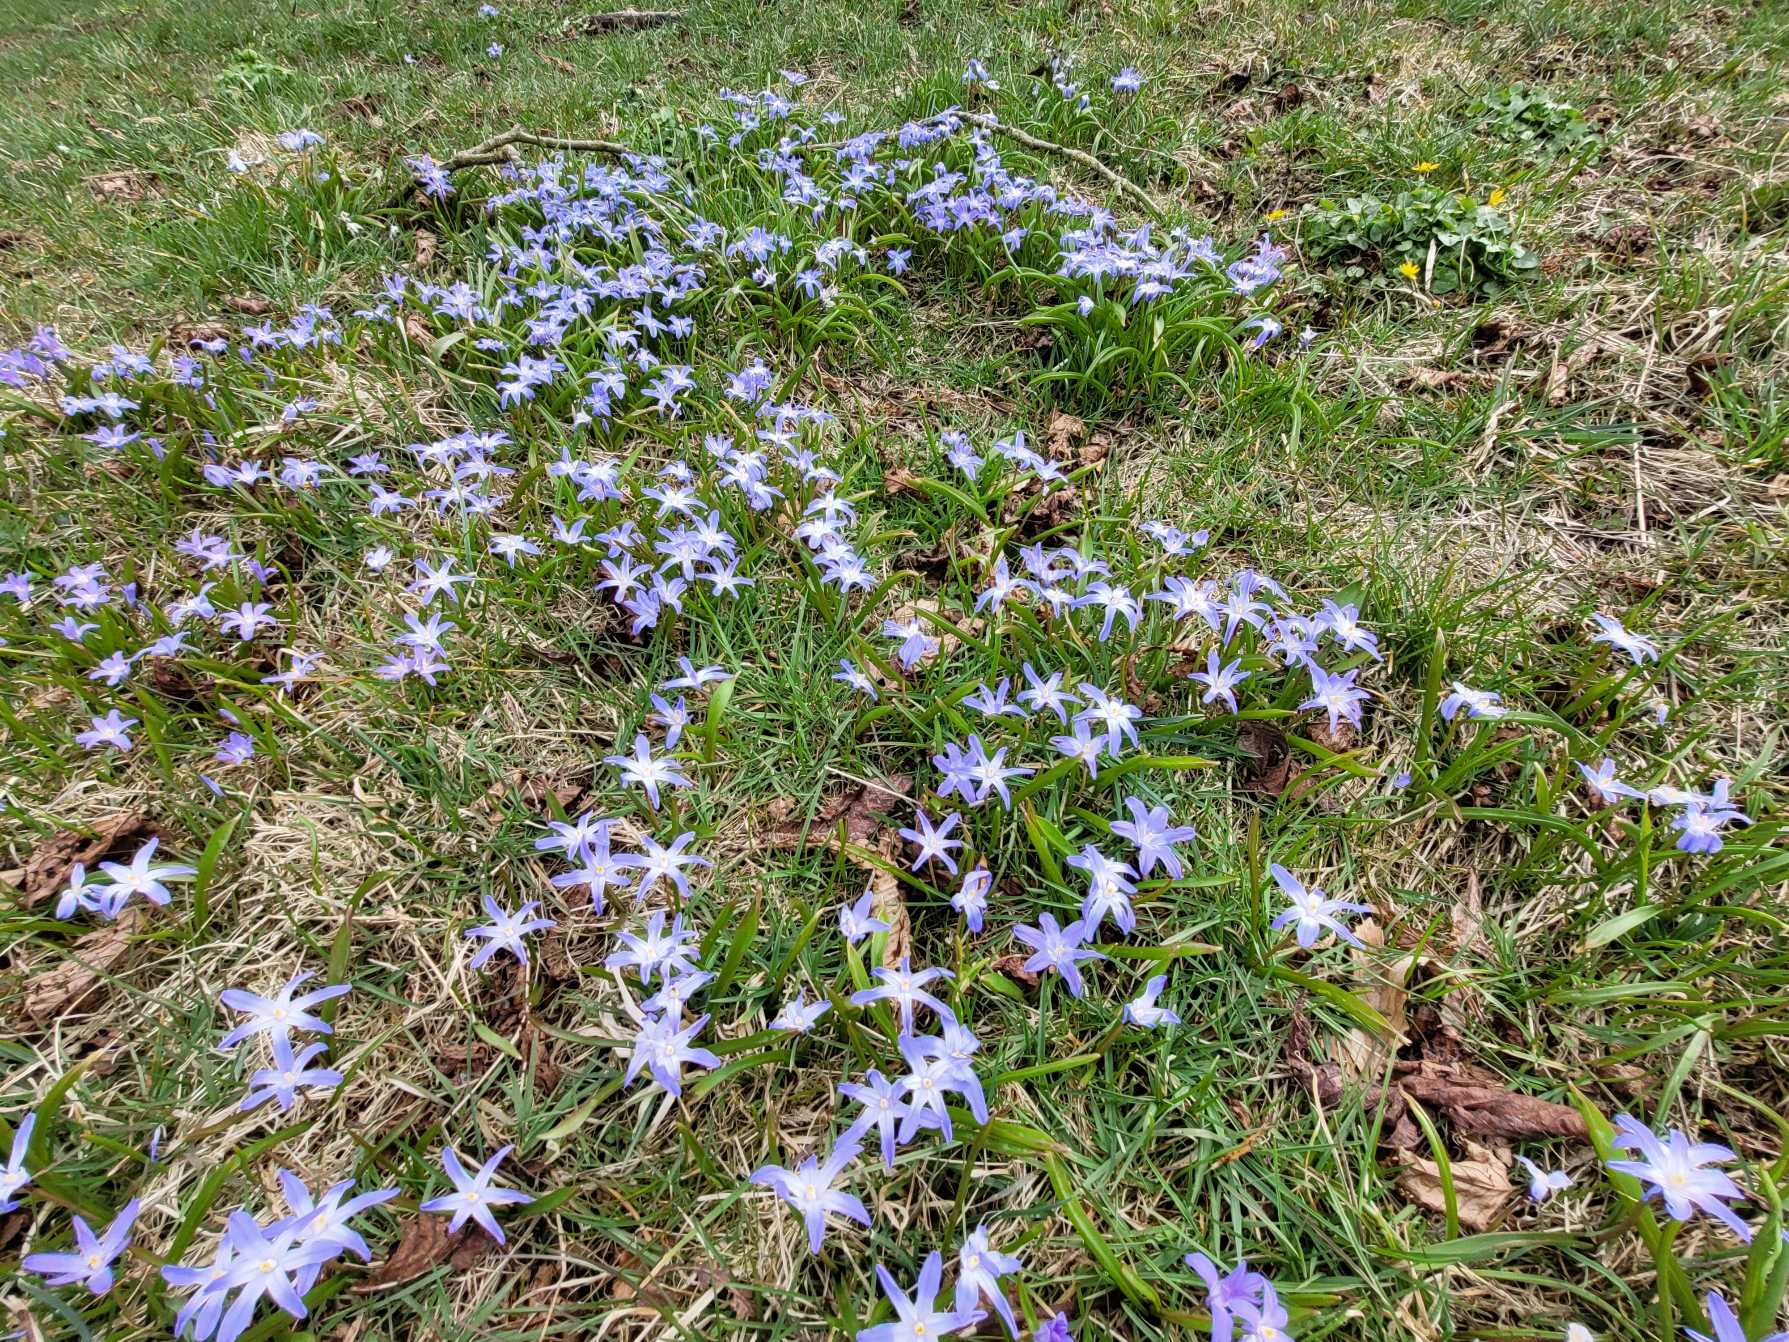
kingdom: Plantae
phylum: Tracheophyta
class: Liliopsida
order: Asparagales
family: Asparagaceae
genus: Scilla
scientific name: Scilla luciliae
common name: Stor snepryd
